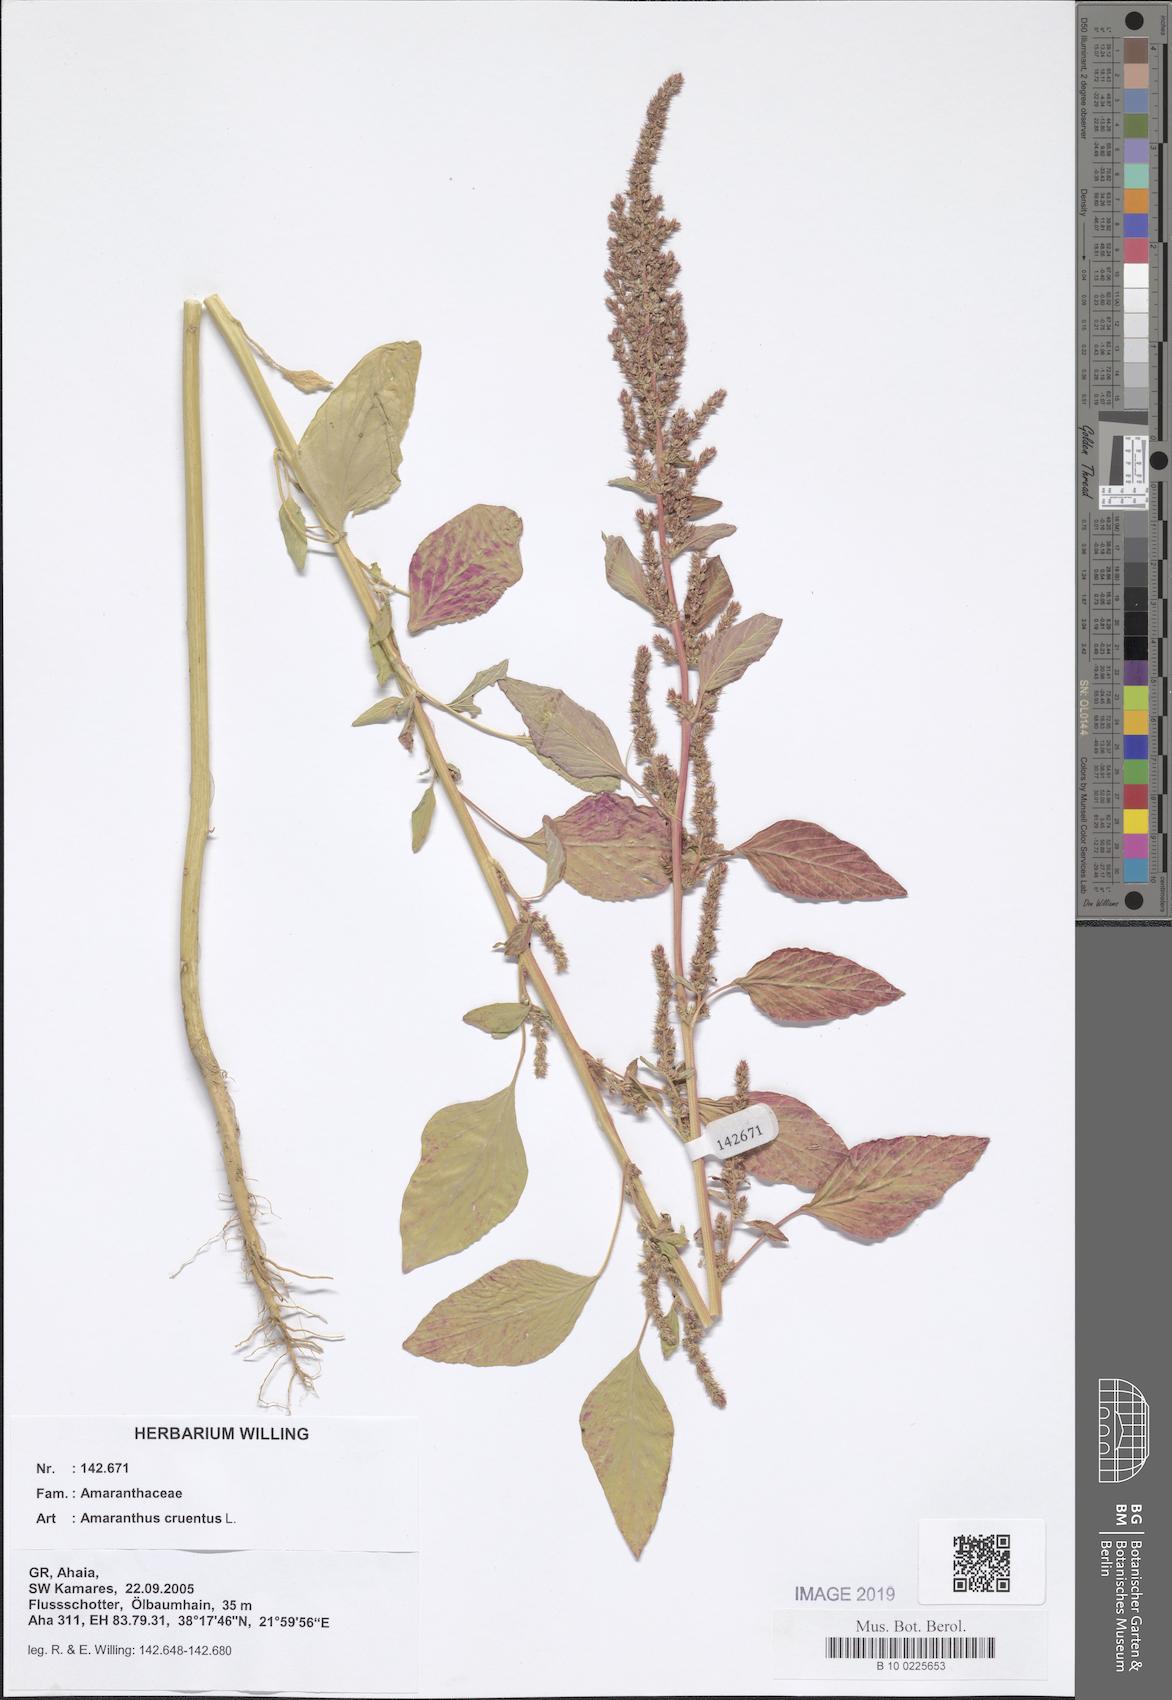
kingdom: Plantae
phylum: Tracheophyta
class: Magnoliopsida
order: Caryophyllales
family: Amaranthaceae
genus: Amaranthus
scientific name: Amaranthus cruentus
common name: Purple amaranth
